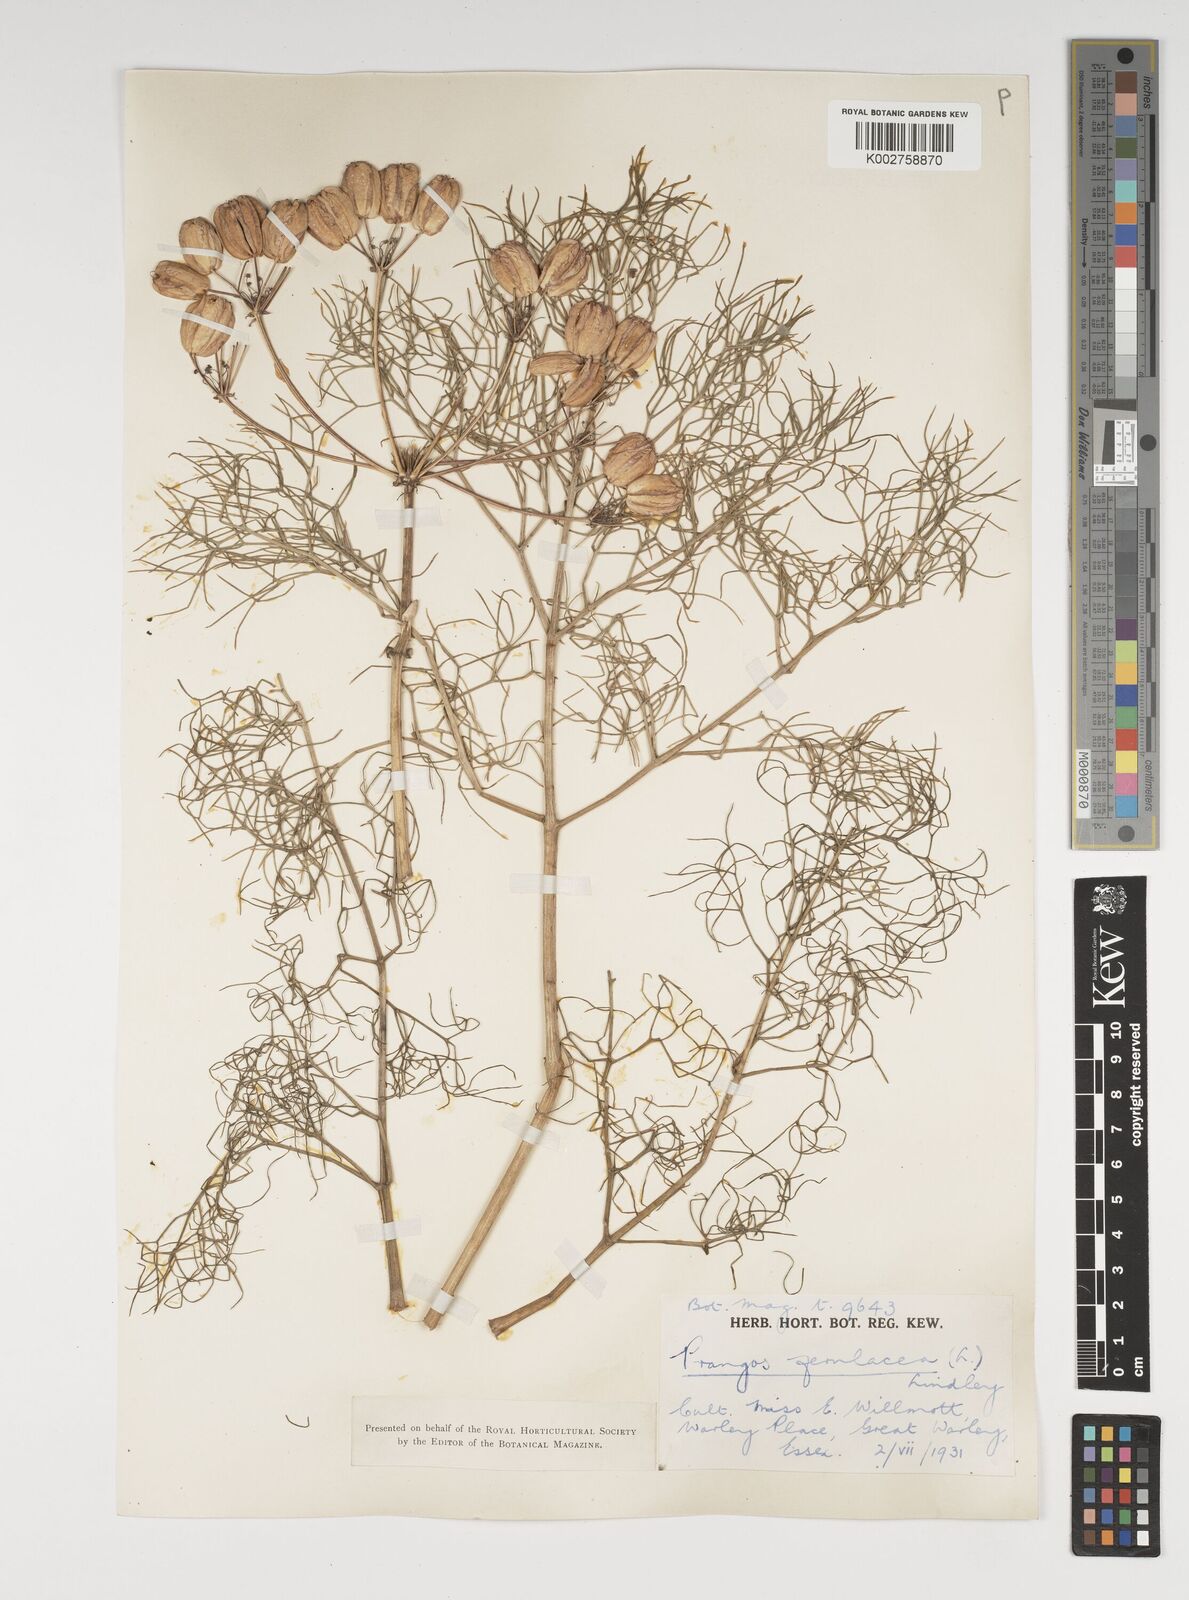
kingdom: Plantae
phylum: Tracheophyta
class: Magnoliopsida
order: Apiales
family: Apiaceae
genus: Prangos
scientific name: Prangos ferulacea
